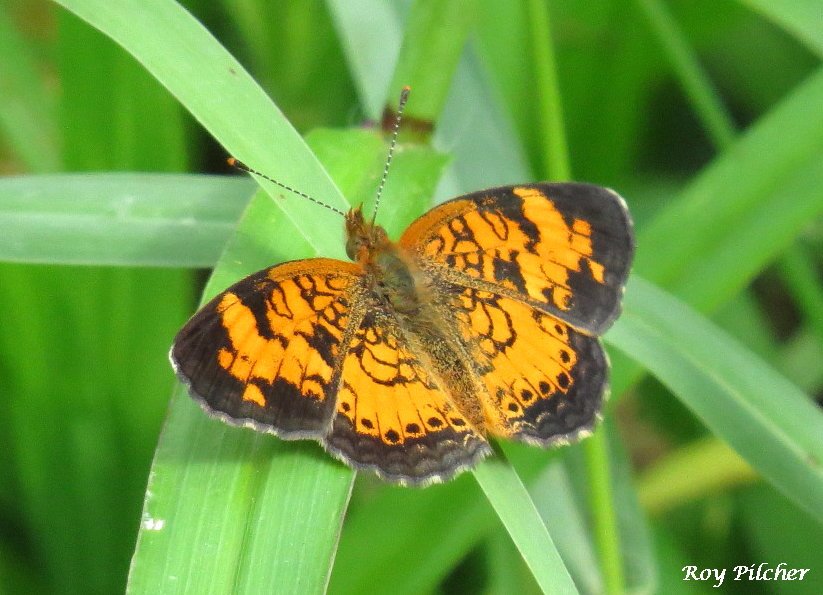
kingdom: Animalia
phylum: Arthropoda
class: Insecta
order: Lepidoptera
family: Nymphalidae
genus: Phyciodes
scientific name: Phyciodes tharos
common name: Northern Crescent
